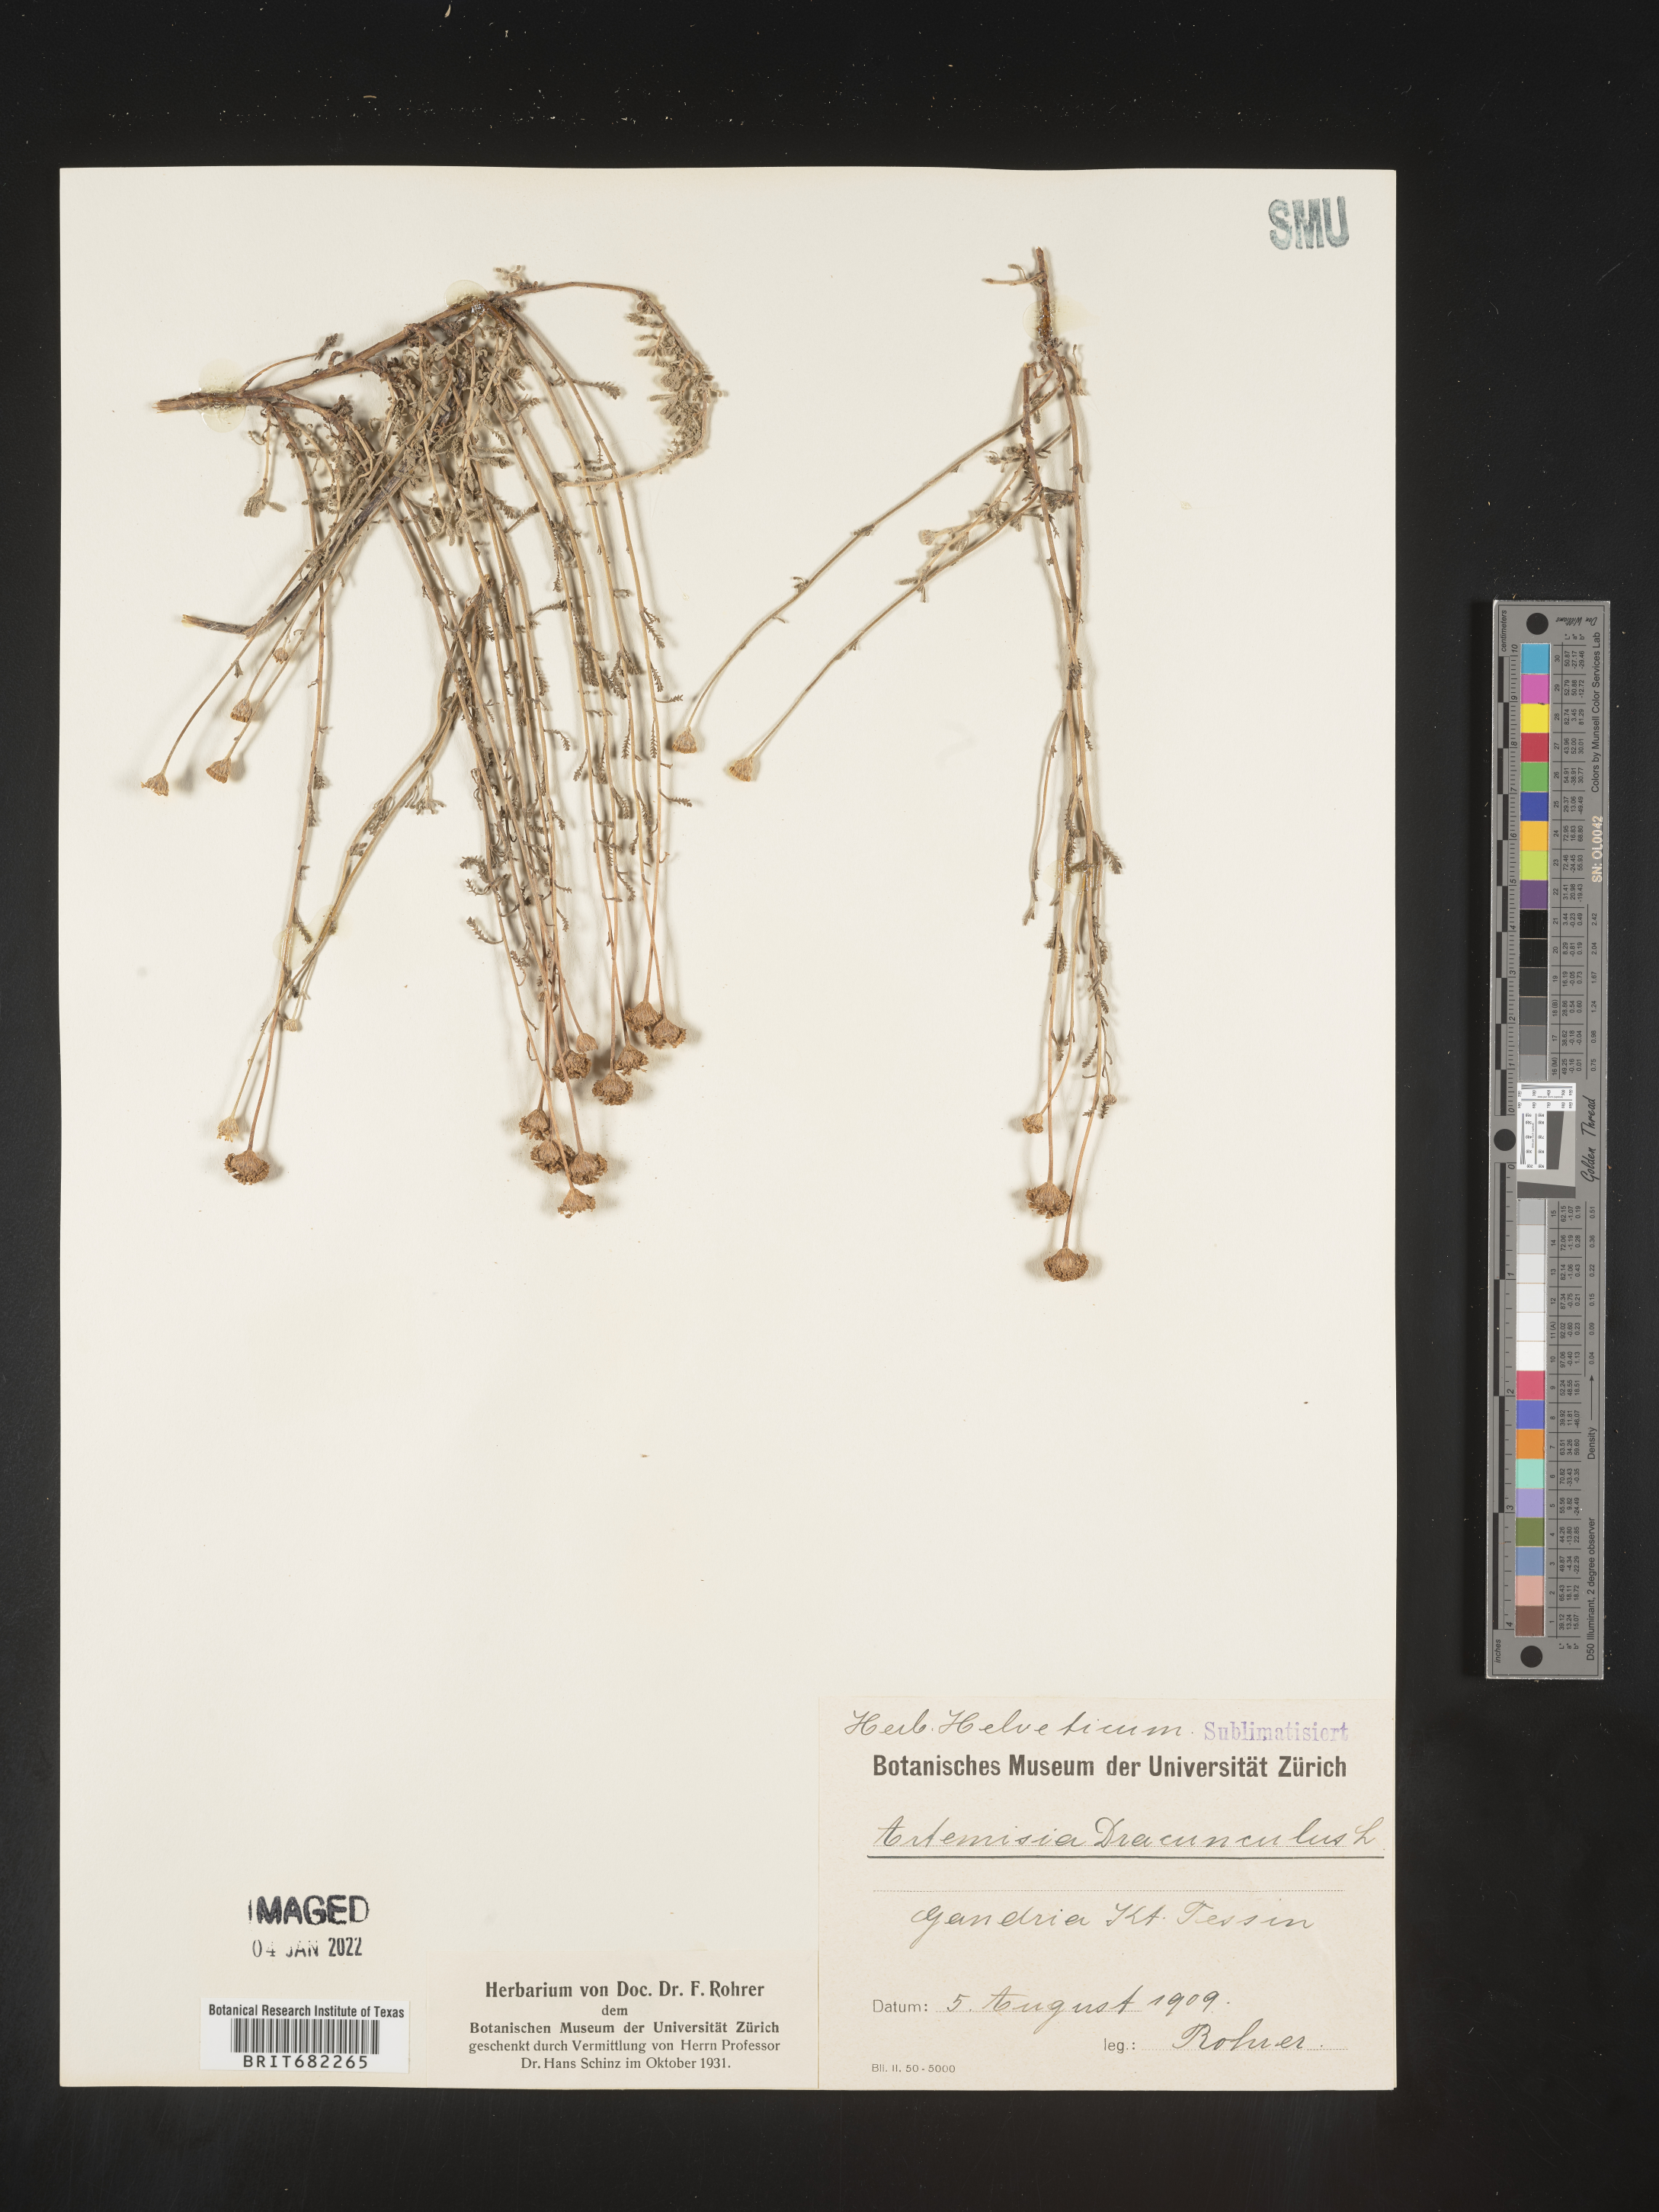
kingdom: Plantae
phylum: Tracheophyta
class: Magnoliopsida
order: Asterales
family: Asteraceae
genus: Artemisia
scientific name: Artemisia
